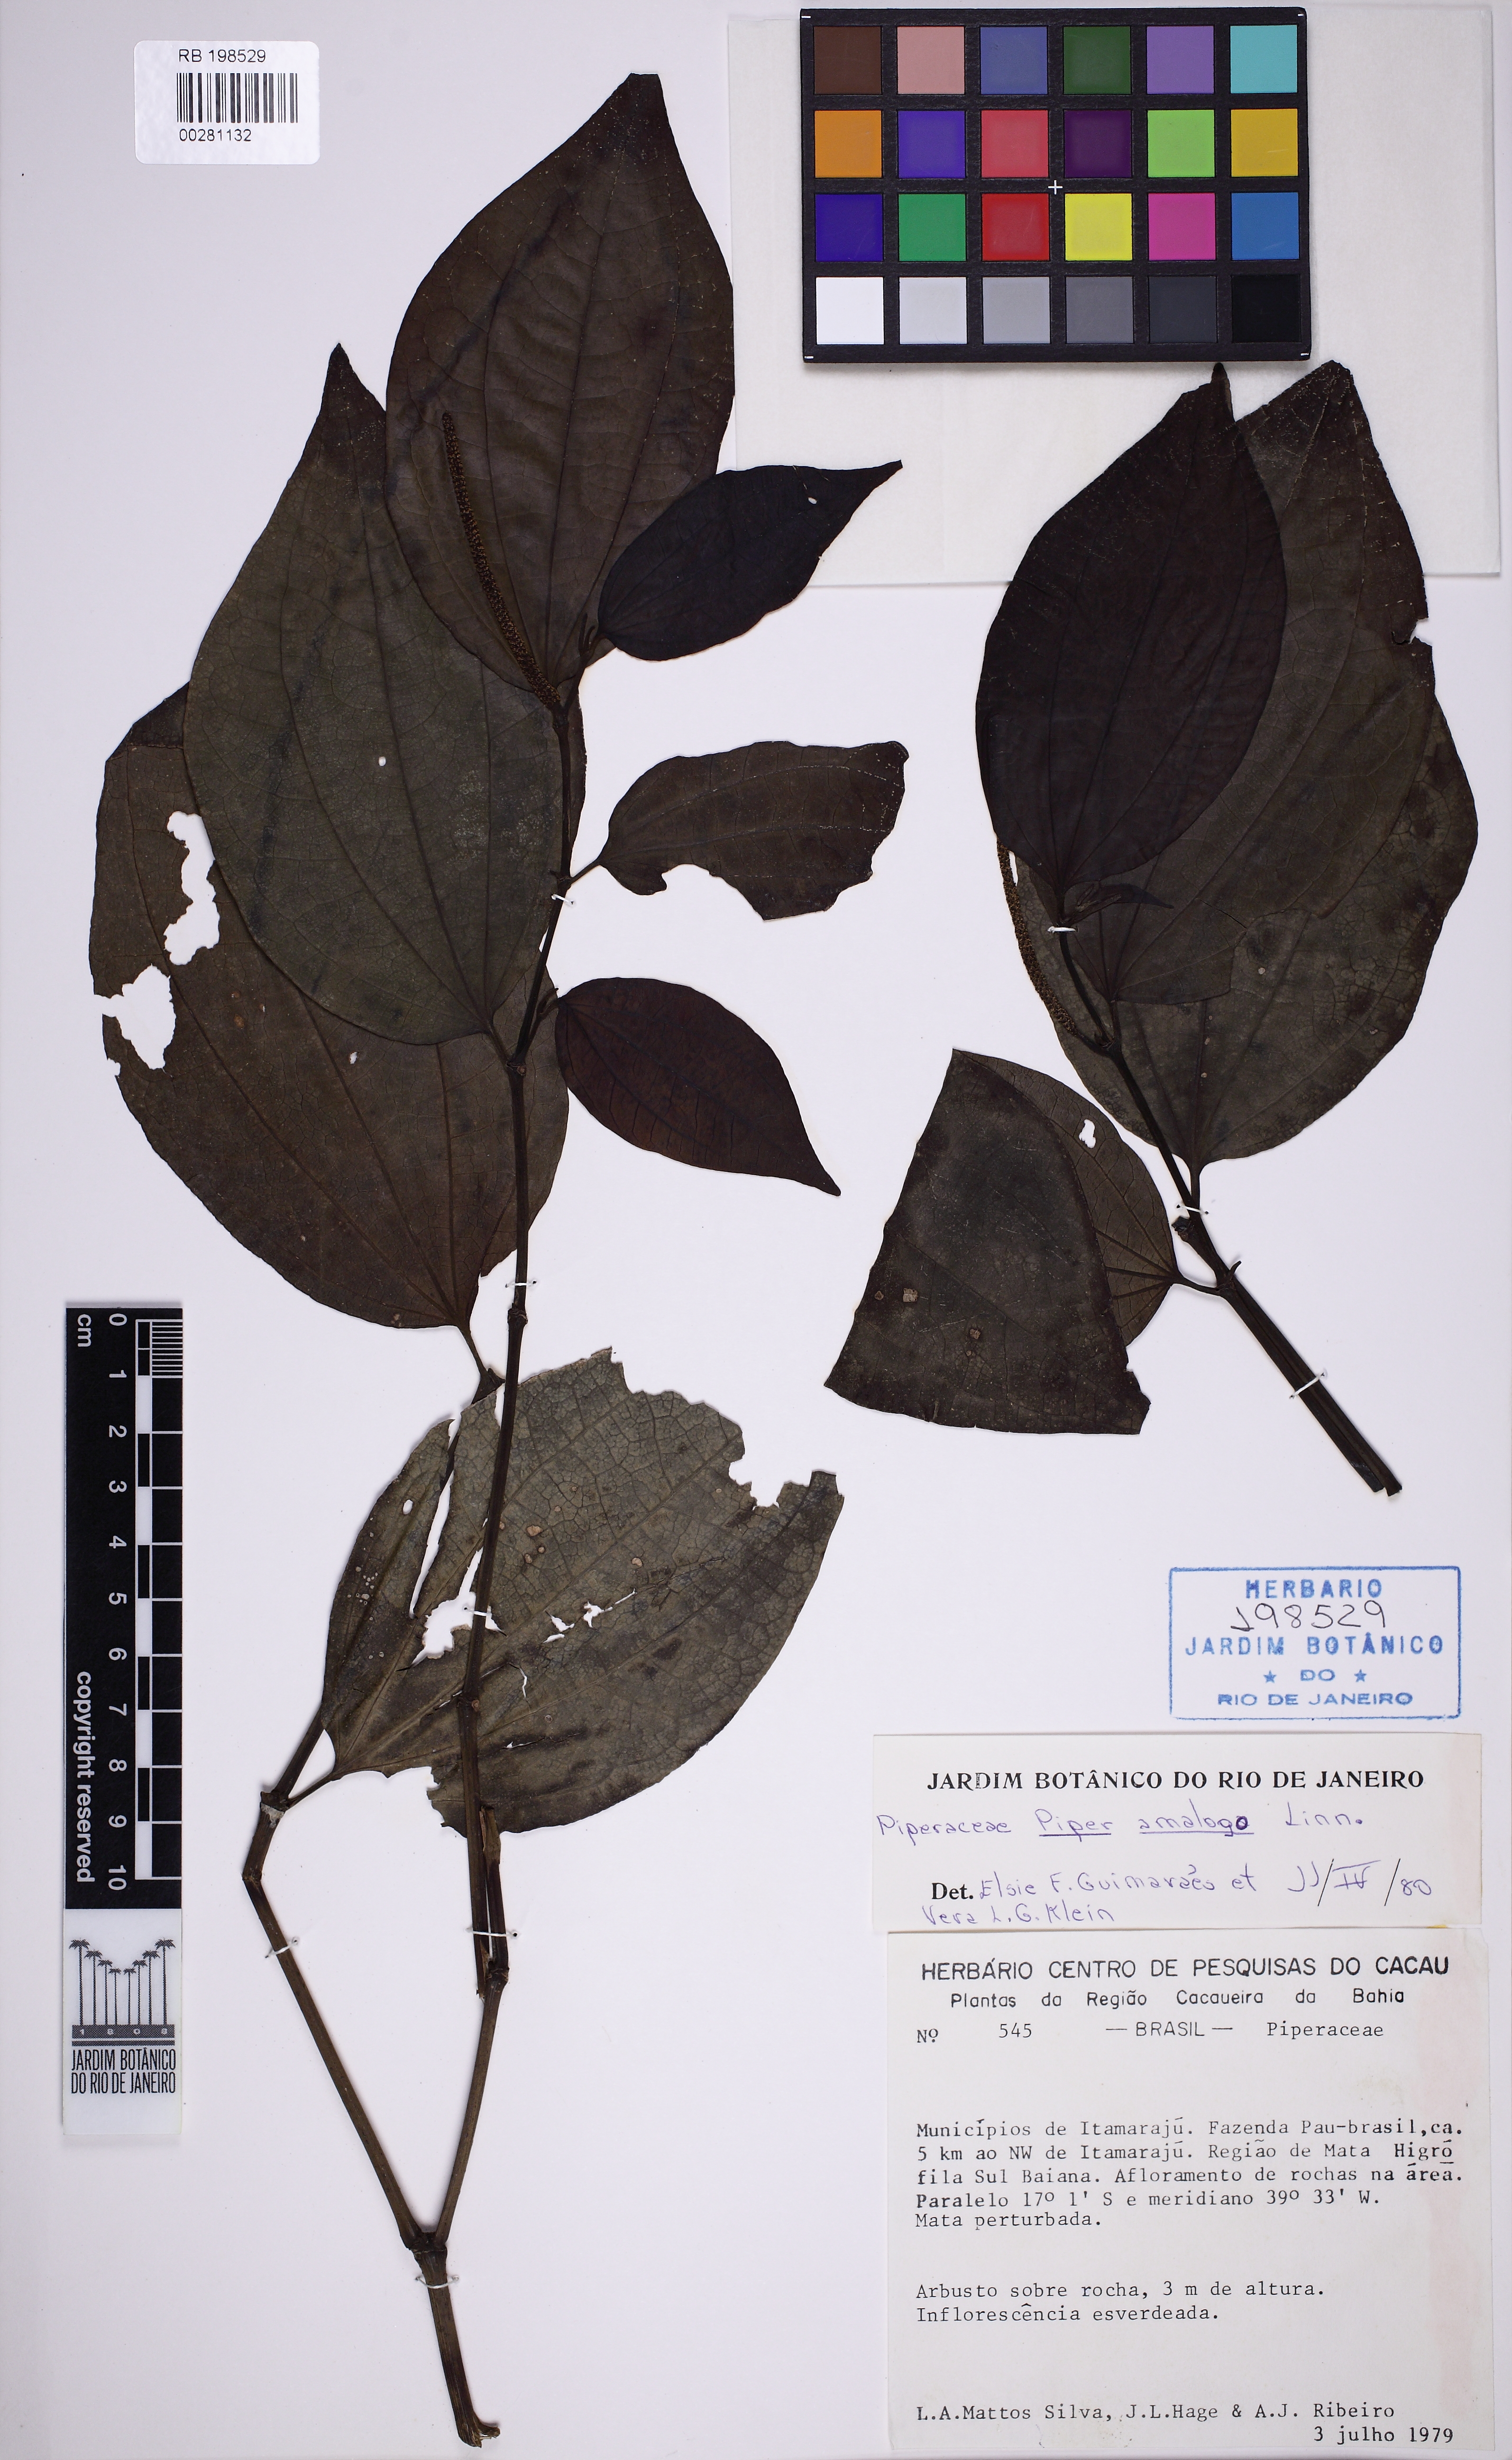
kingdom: Plantae
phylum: Tracheophyta
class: Magnoliopsida
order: Piperales
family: Piperaceae
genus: Piper
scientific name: Piper amalago
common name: Pepper-elder
